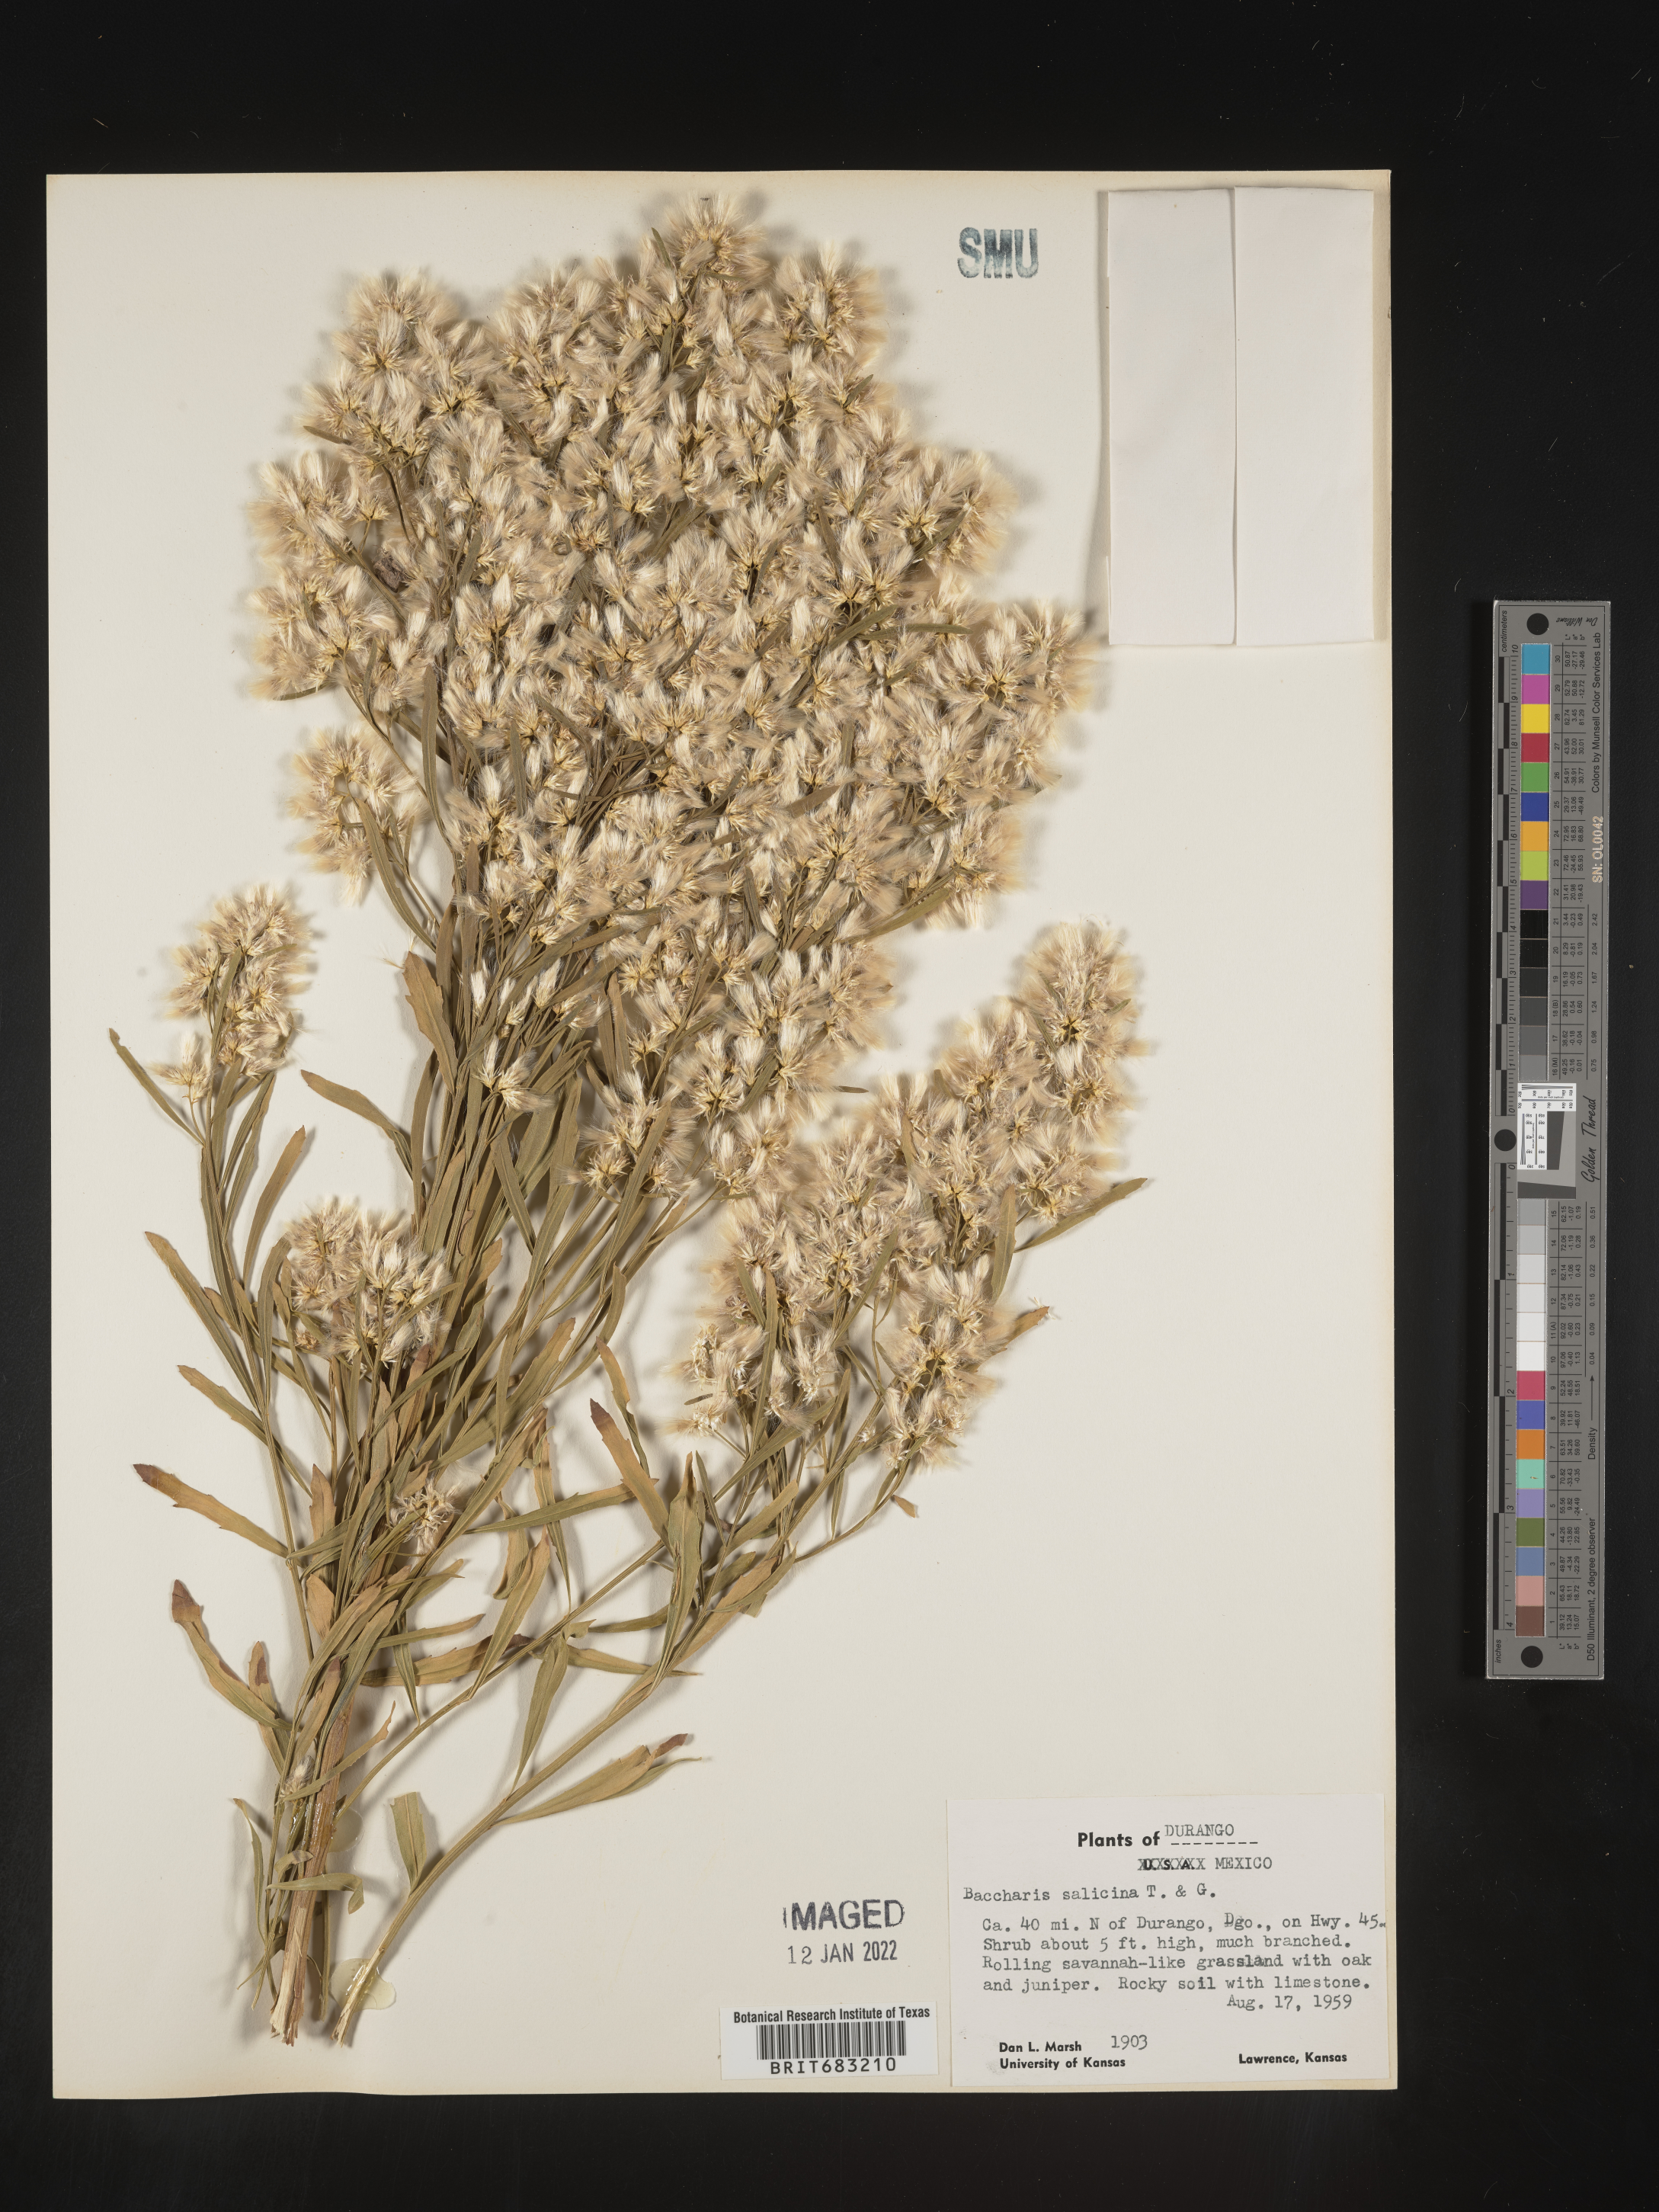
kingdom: Plantae
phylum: Tracheophyta
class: Magnoliopsida
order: Asterales
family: Asteraceae
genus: Baccharis
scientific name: Baccharis salicina
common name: Willow baccharis
